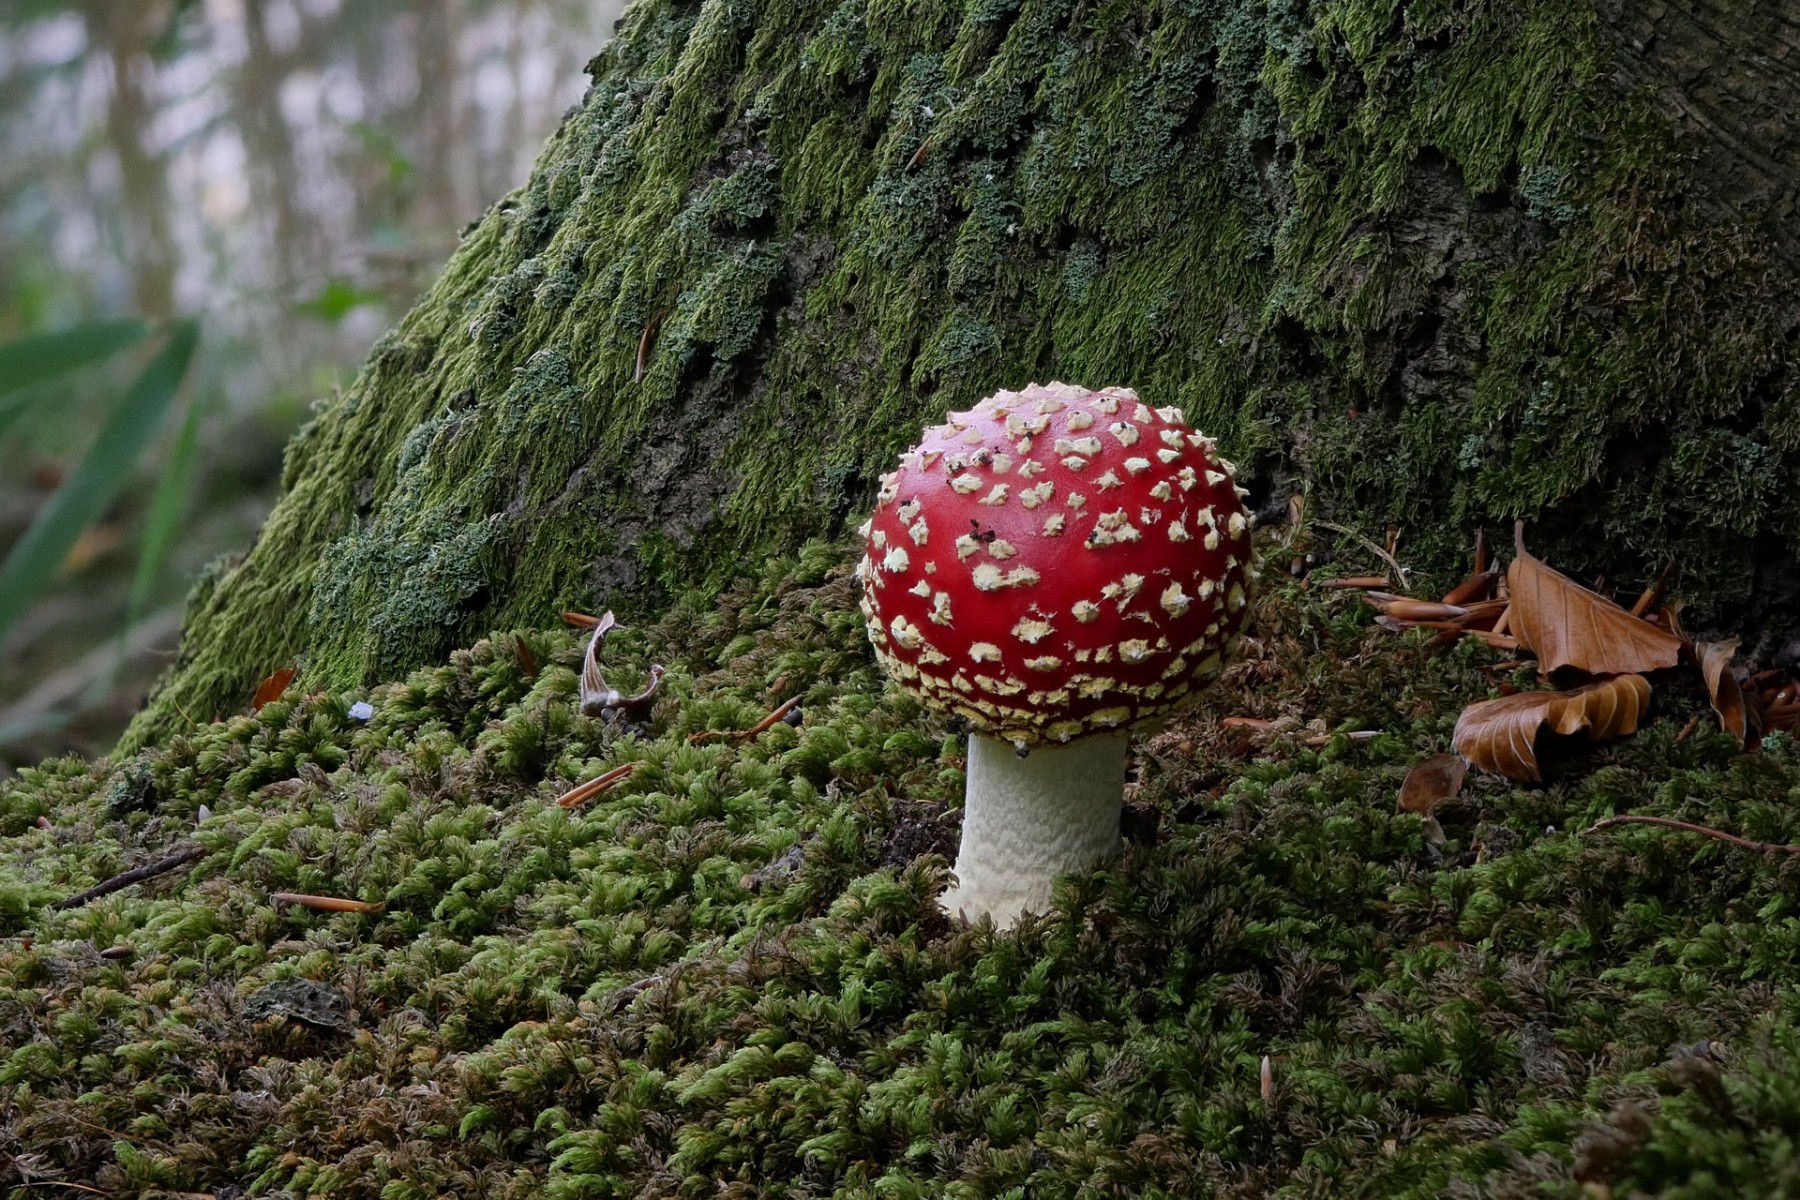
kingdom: Fungi
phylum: Basidiomycota
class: Agaricomycetes
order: Agaricales
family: Amanitaceae
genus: Amanita
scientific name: Amanita muscaria
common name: rød fluesvamp
